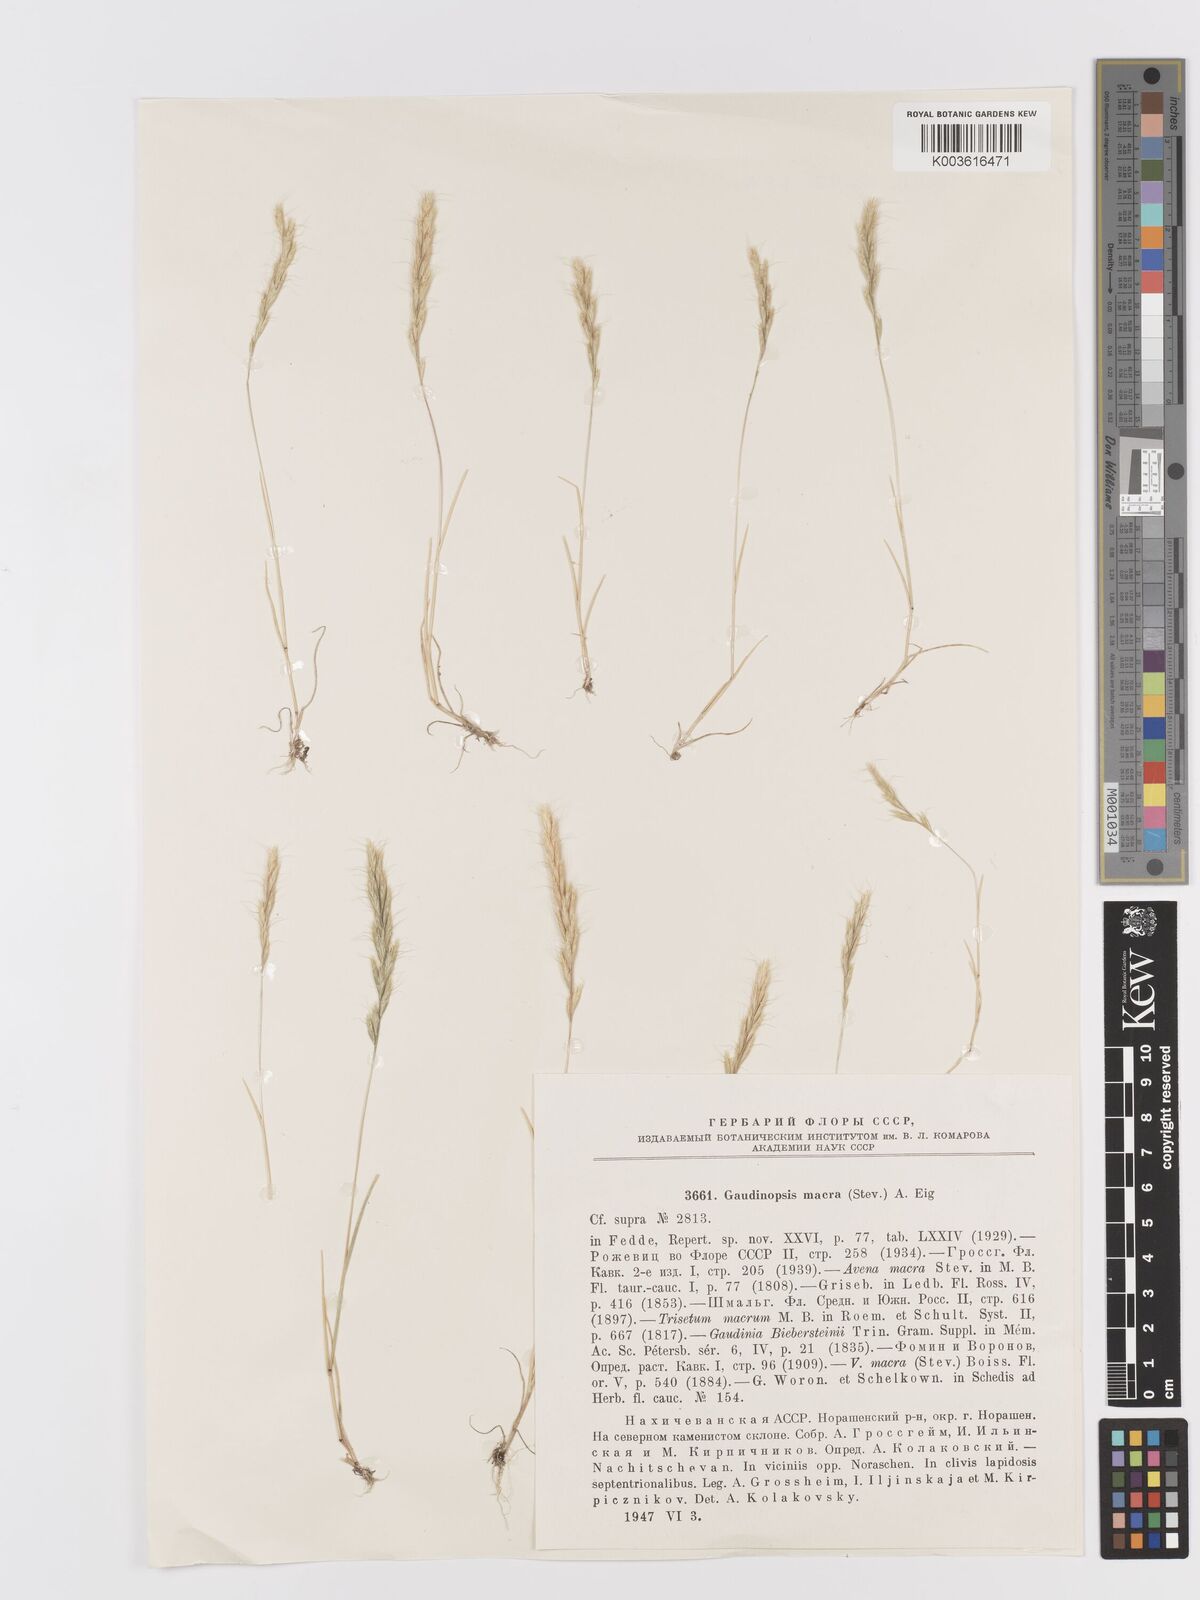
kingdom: Plantae
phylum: Tracheophyta
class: Liliopsida
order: Poales
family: Poaceae
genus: Ventenata
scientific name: Ventenata macra
